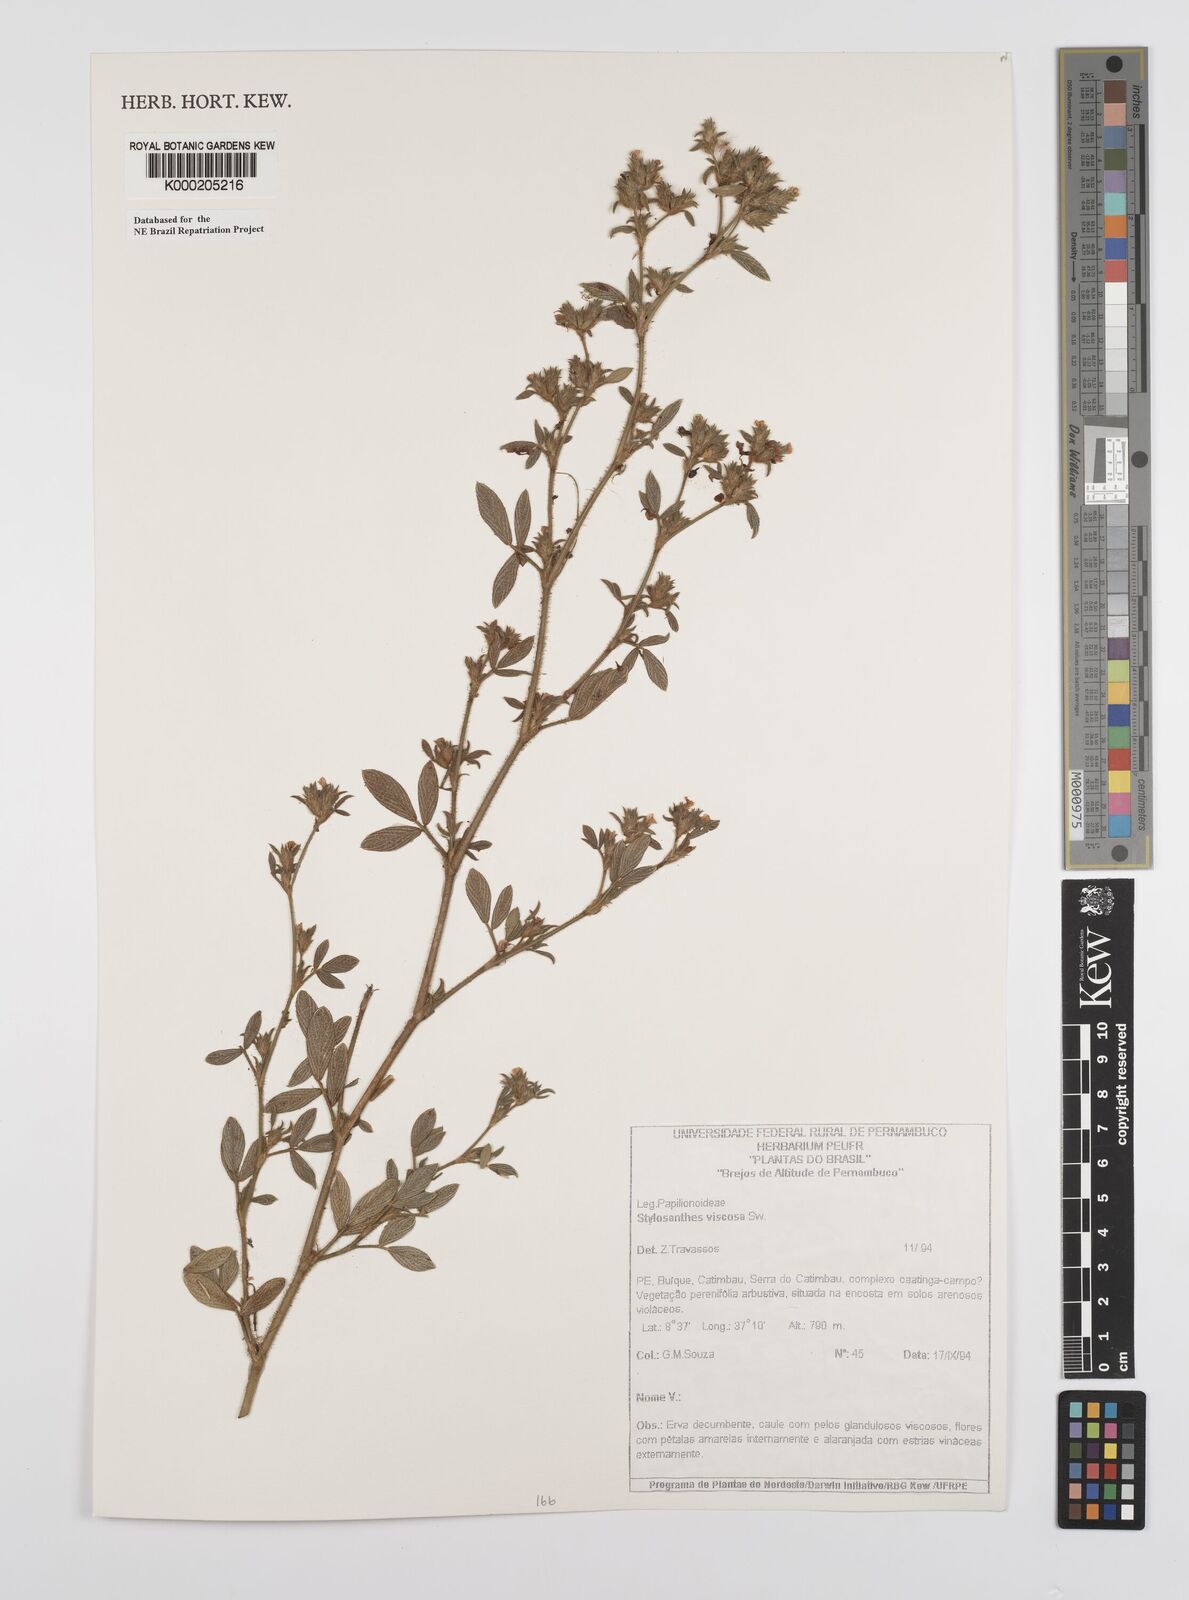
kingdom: Plantae
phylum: Tracheophyta
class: Magnoliopsida
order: Fabales
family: Fabaceae
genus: Stylosanthes
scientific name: Stylosanthes viscosa
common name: Viscid pencil-flower
